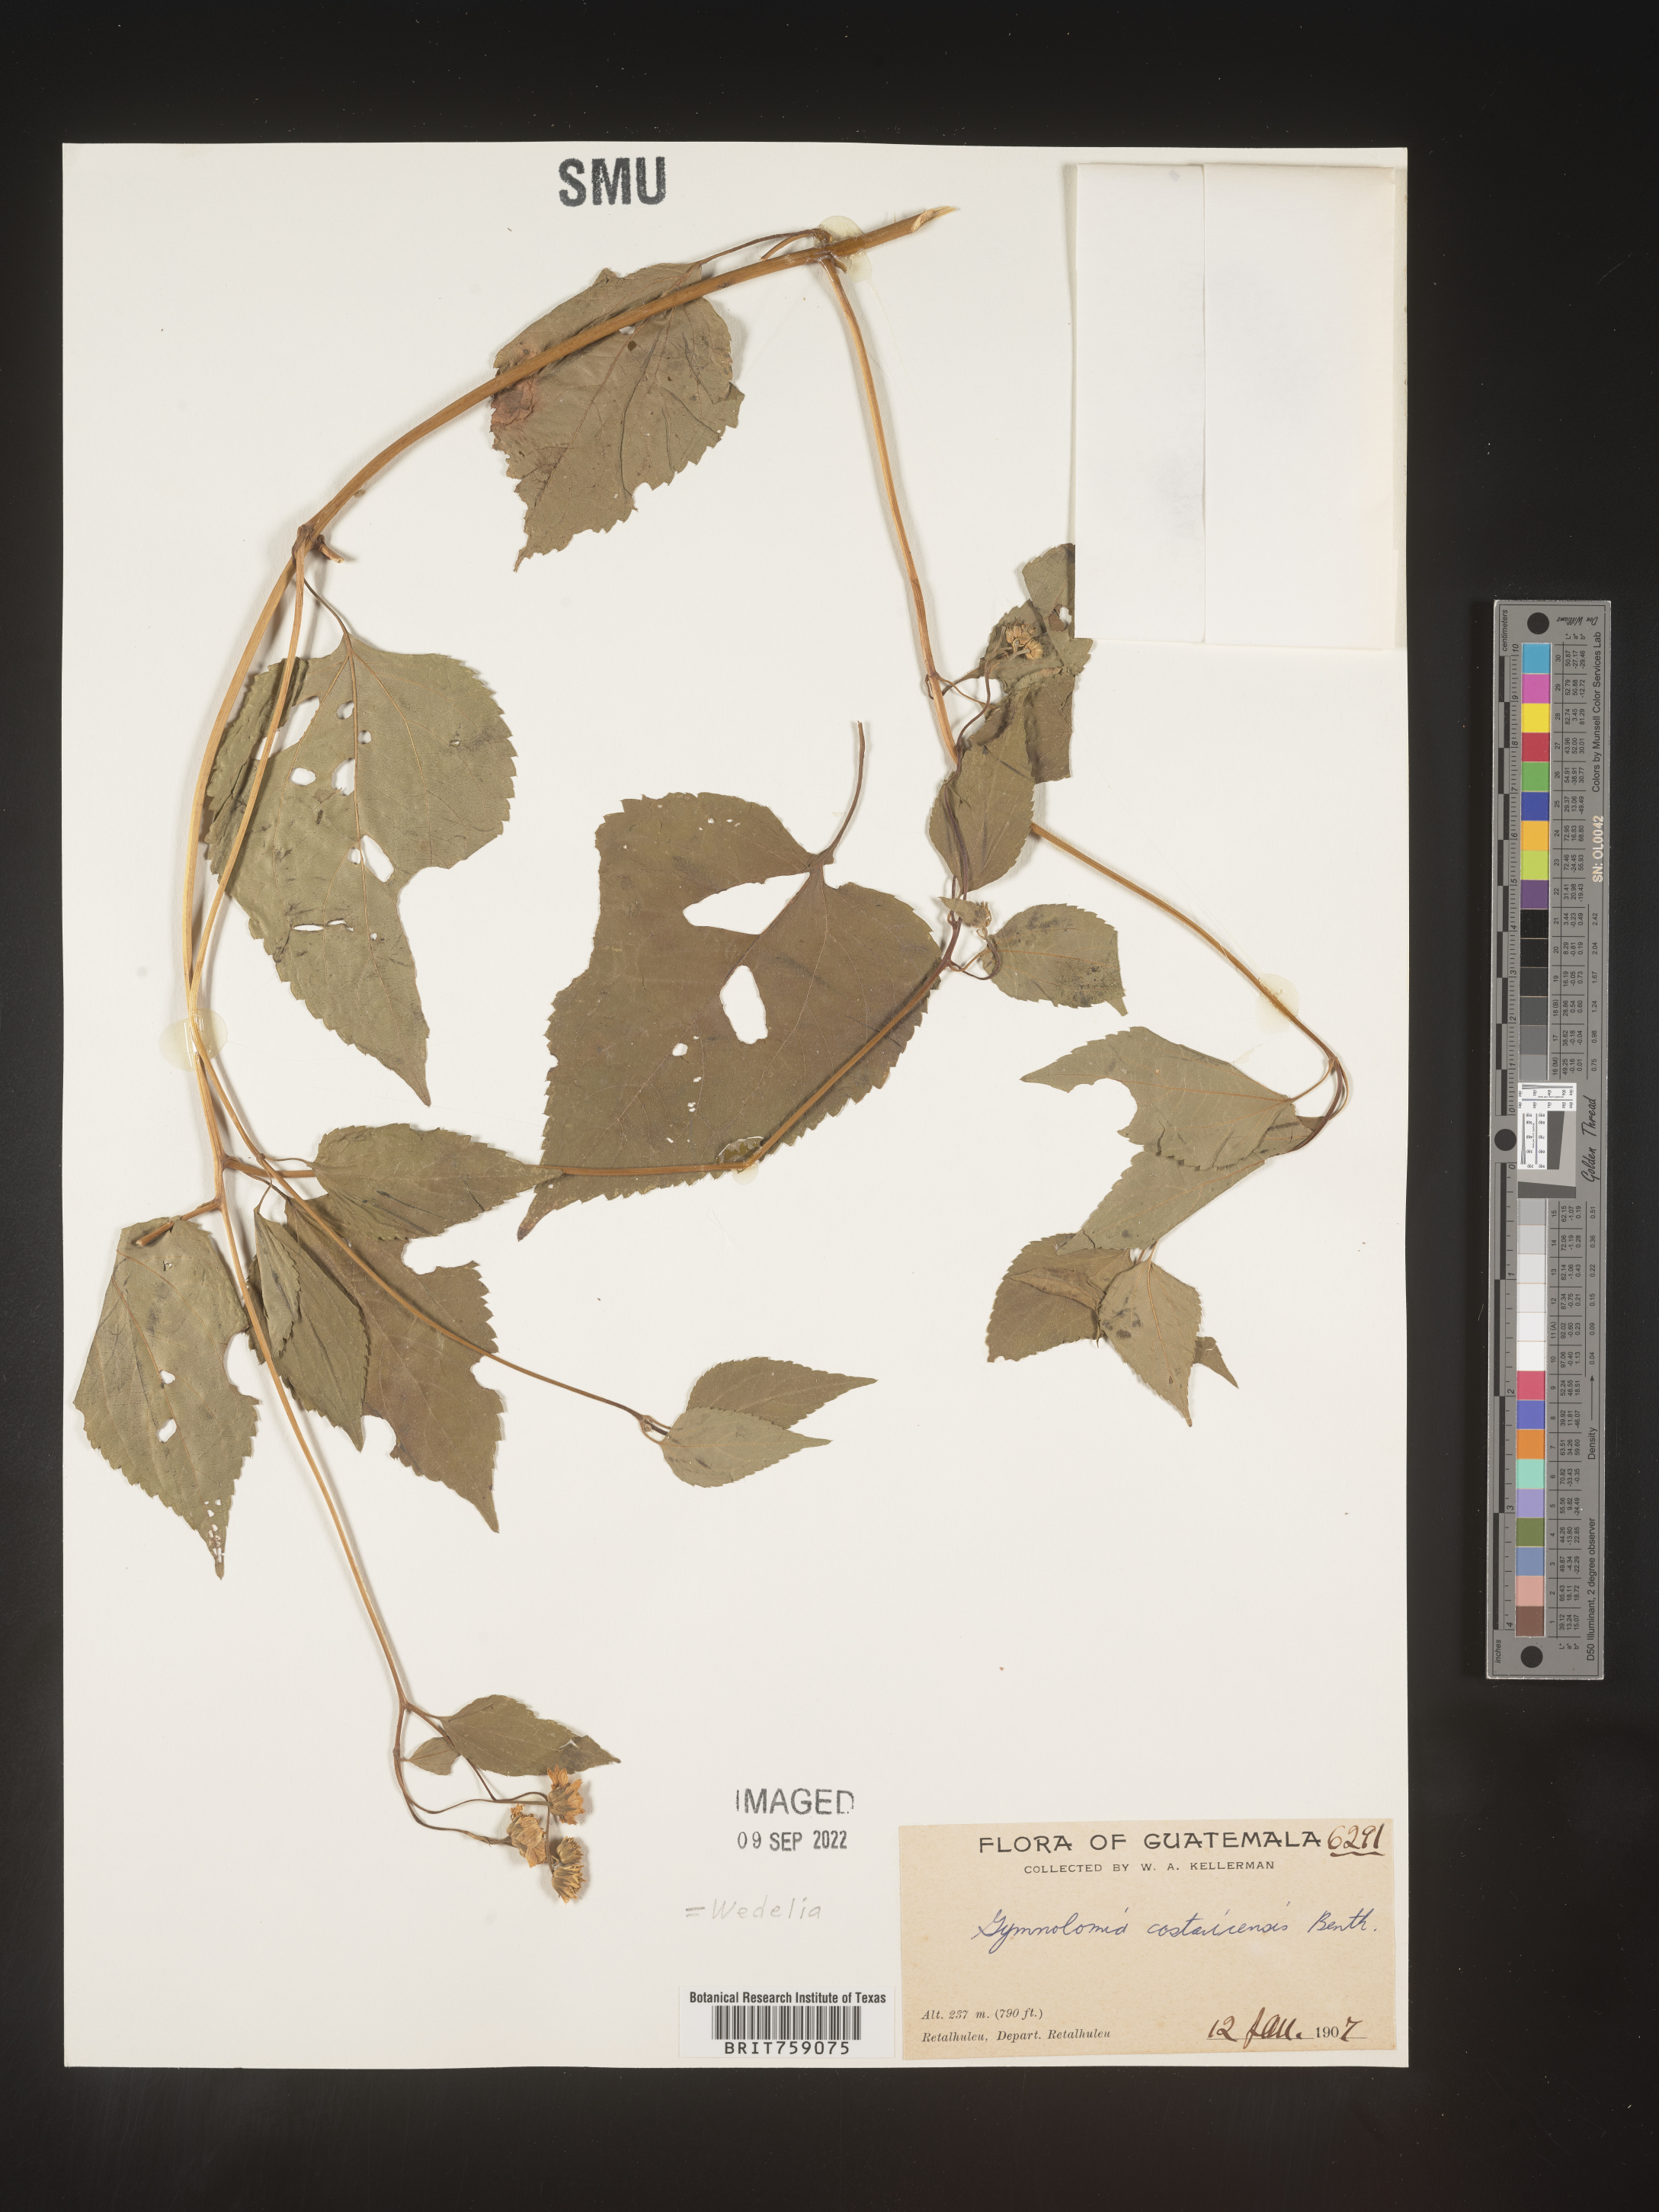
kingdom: Plantae
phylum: Tracheophyta
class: Magnoliopsida
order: Asterales
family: Asteraceae
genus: Wedelia
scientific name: Wedelia
